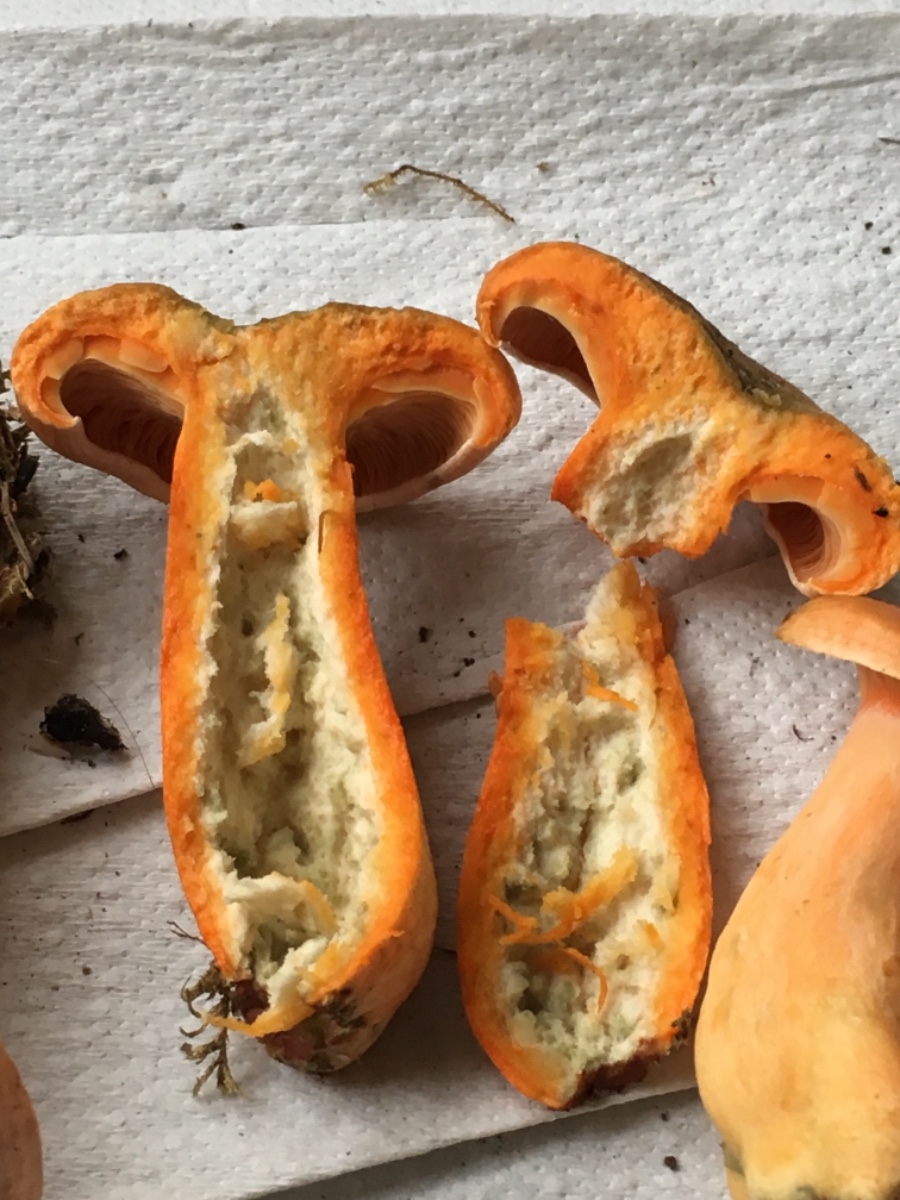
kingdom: Fungi
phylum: Basidiomycota
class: Agaricomycetes
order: Russulales
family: Russulaceae
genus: Lactarius
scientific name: Lactarius deterrimus
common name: gran-mælkehat
